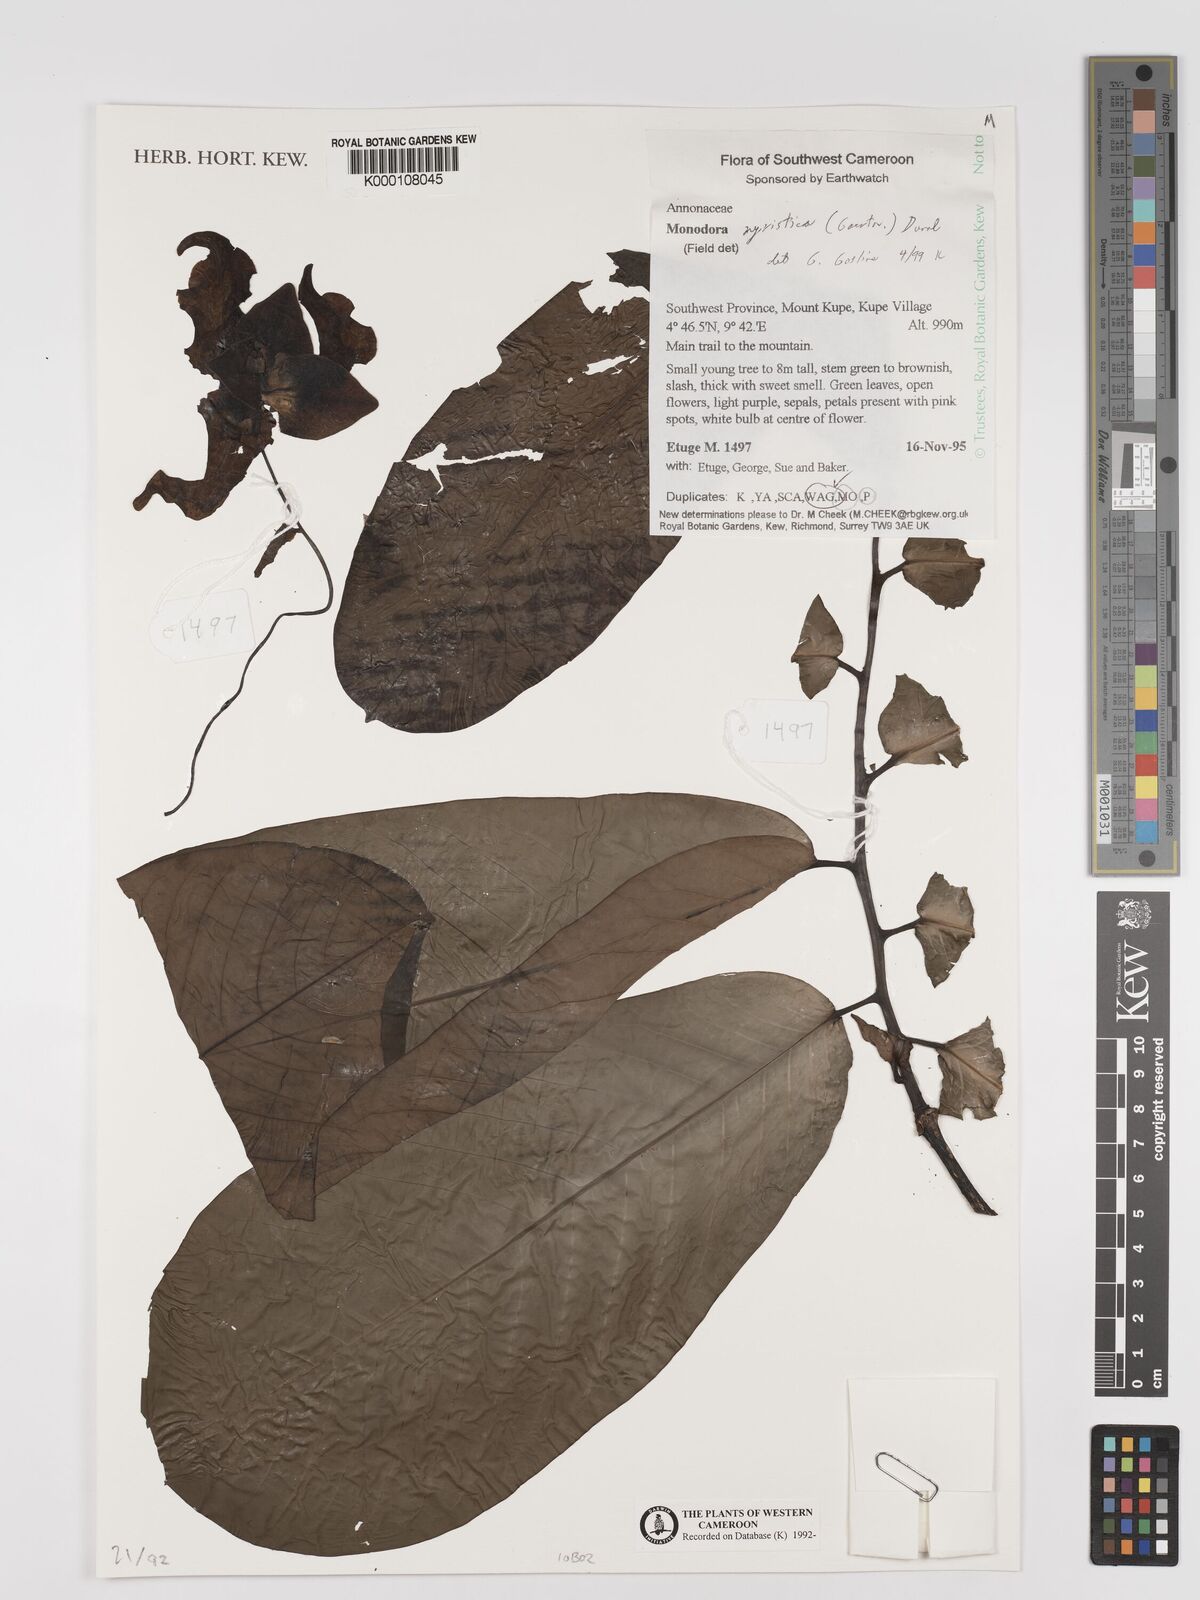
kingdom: Plantae
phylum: Tracheophyta
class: Magnoliopsida
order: Magnoliales
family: Annonaceae
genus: Monodora
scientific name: Monodora myristica
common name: African nutmeg
